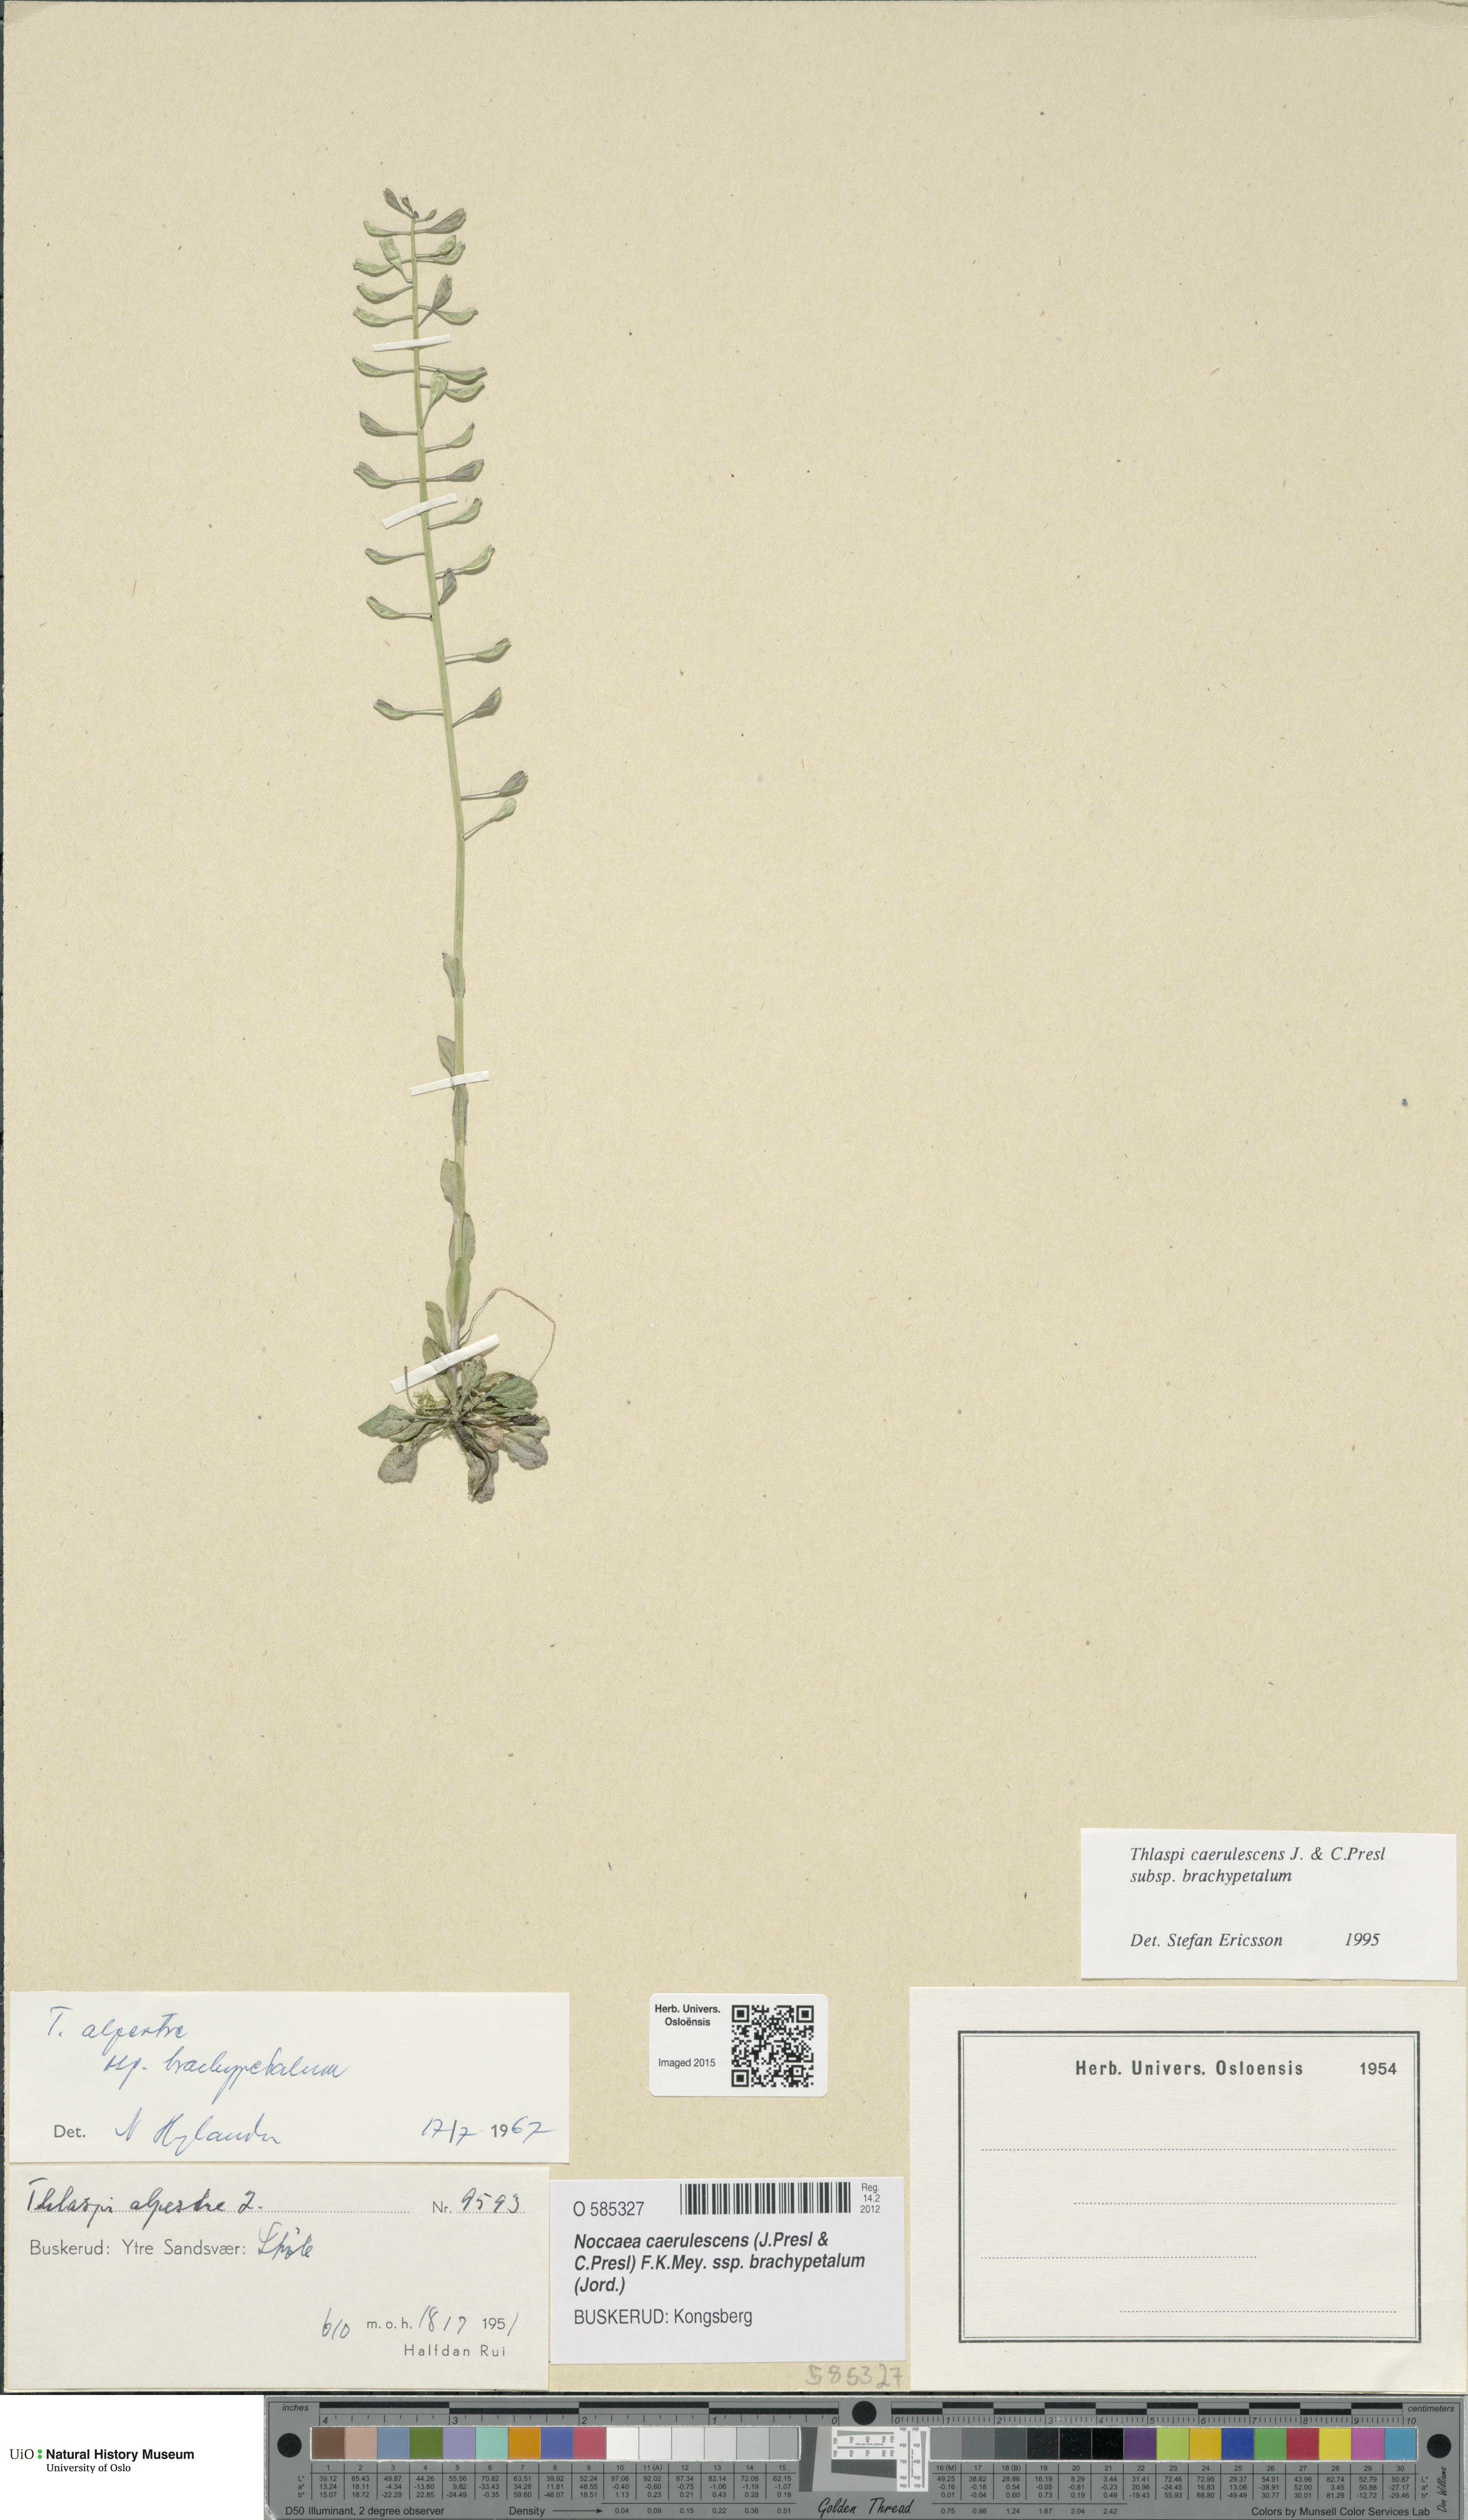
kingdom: Plantae
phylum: Tracheophyta
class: Magnoliopsida
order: Brassicales
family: Brassicaceae
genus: Noccaea
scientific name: Noccaea brachypetala
